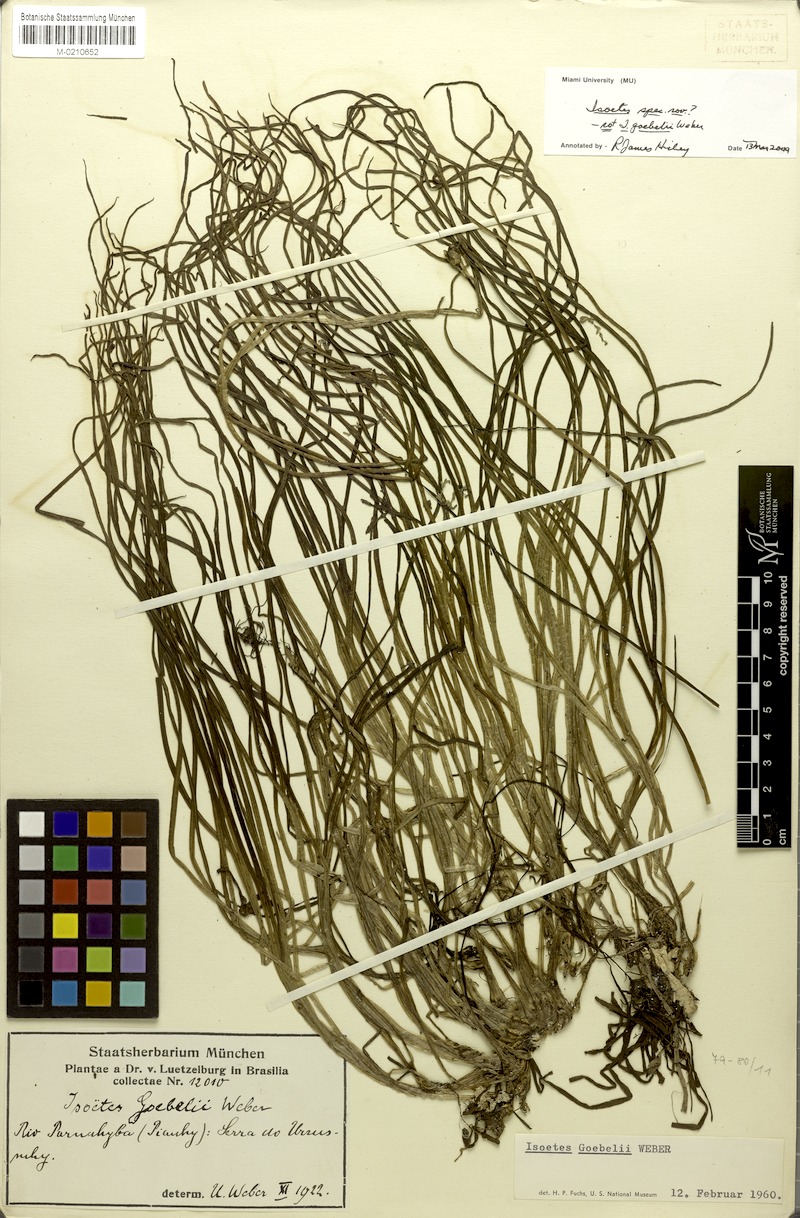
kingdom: Plantae
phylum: Tracheophyta
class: Lycopodiopsida
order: Isoetales
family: Isoetaceae
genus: Isoetes
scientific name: Isoetes
